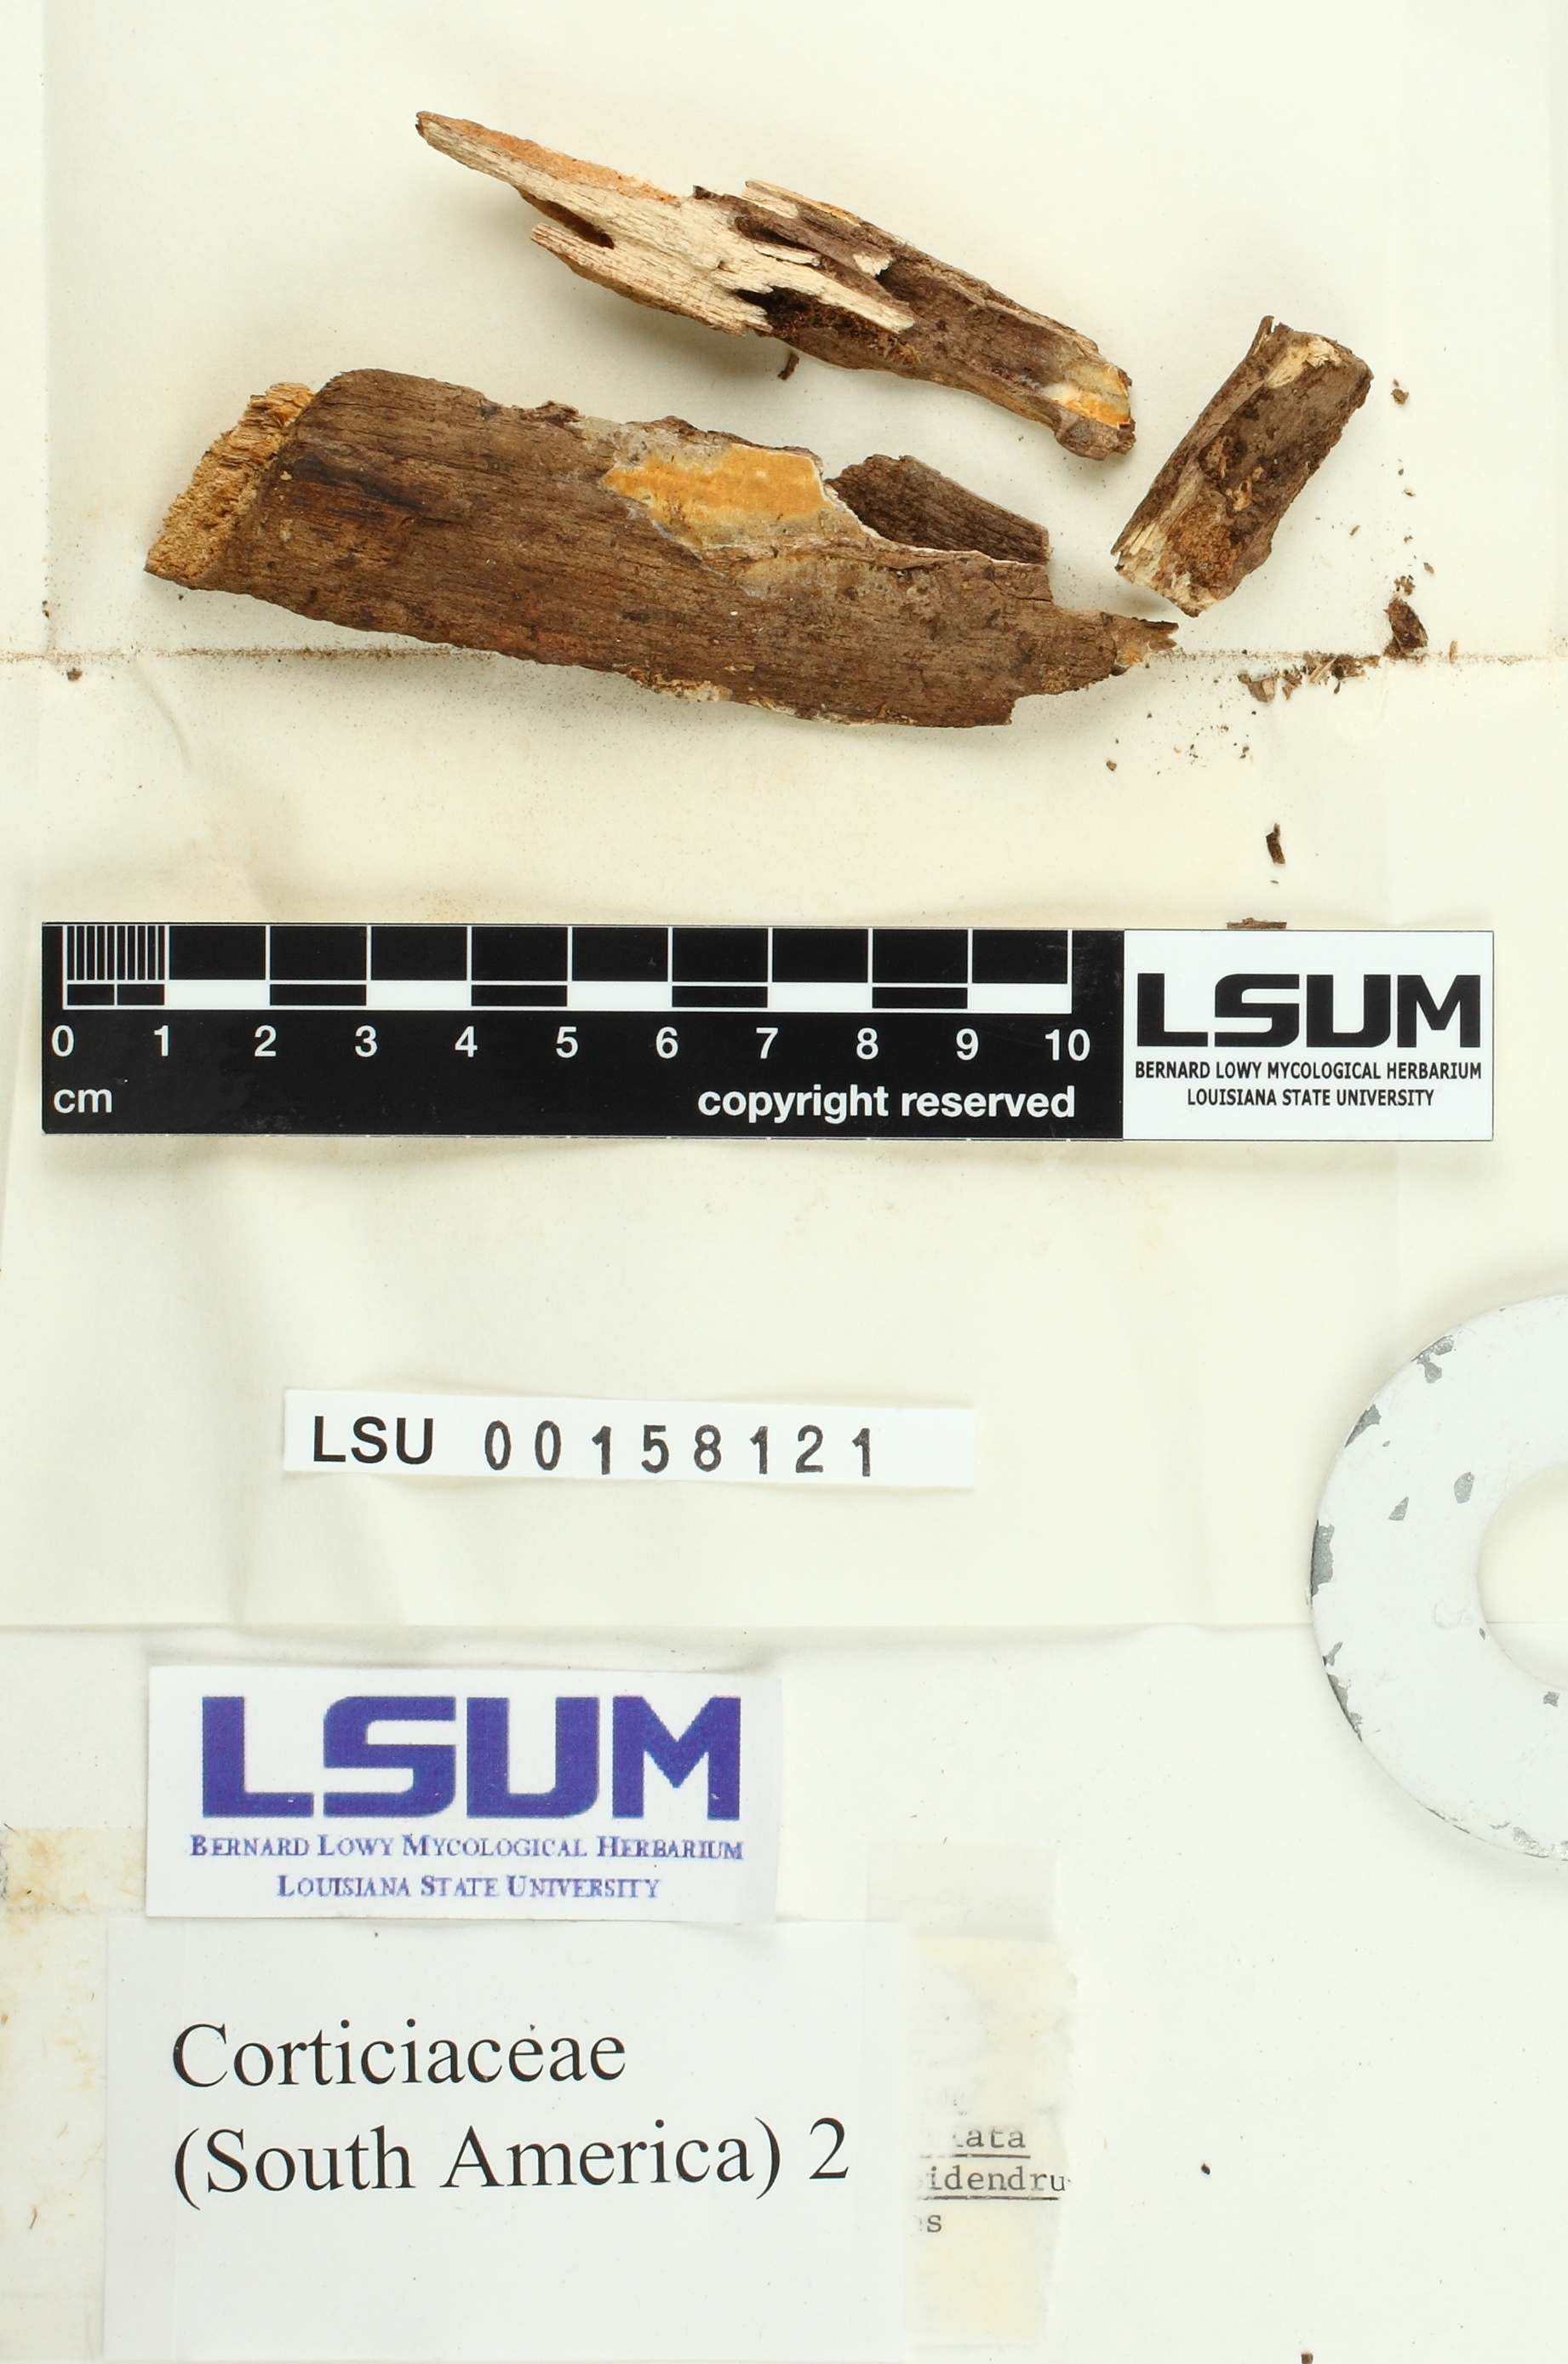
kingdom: Fungi
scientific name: Fungi
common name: Fungi
